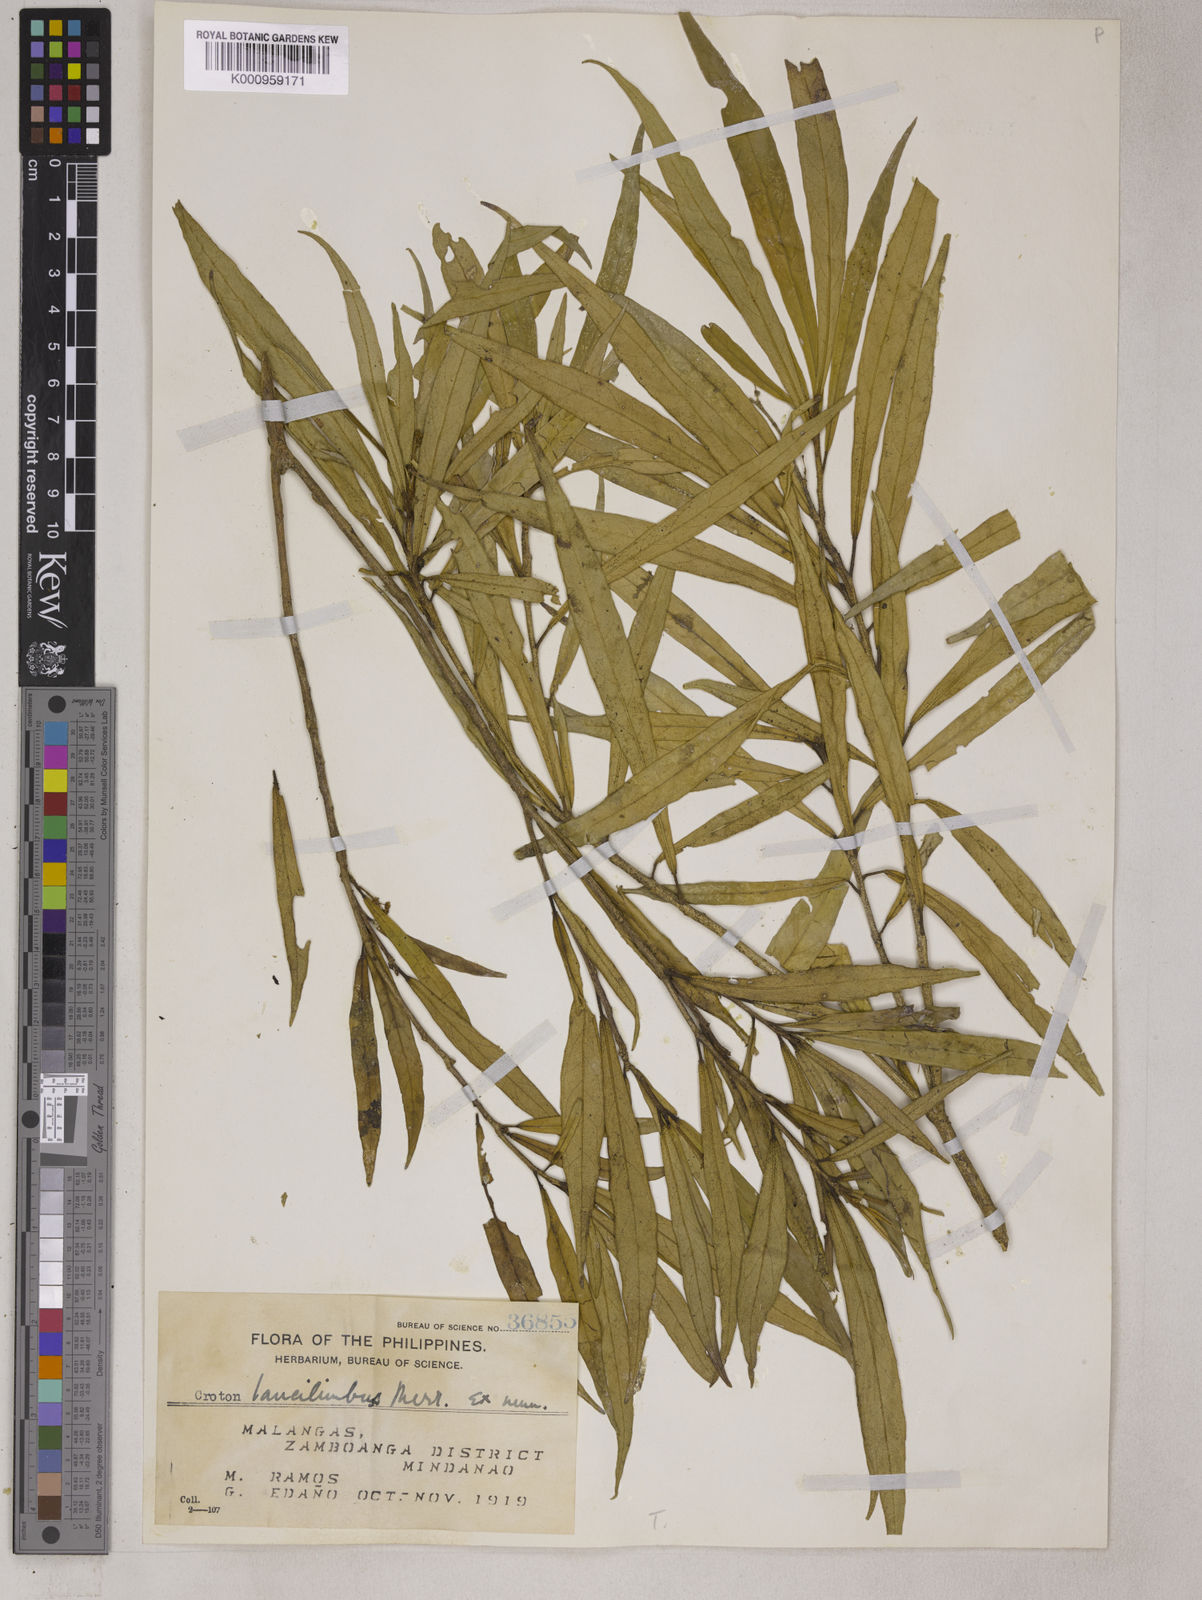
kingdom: Plantae
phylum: Tracheophyta
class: Magnoliopsida
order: Malpighiales
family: Euphorbiaceae
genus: Croton
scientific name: Croton
